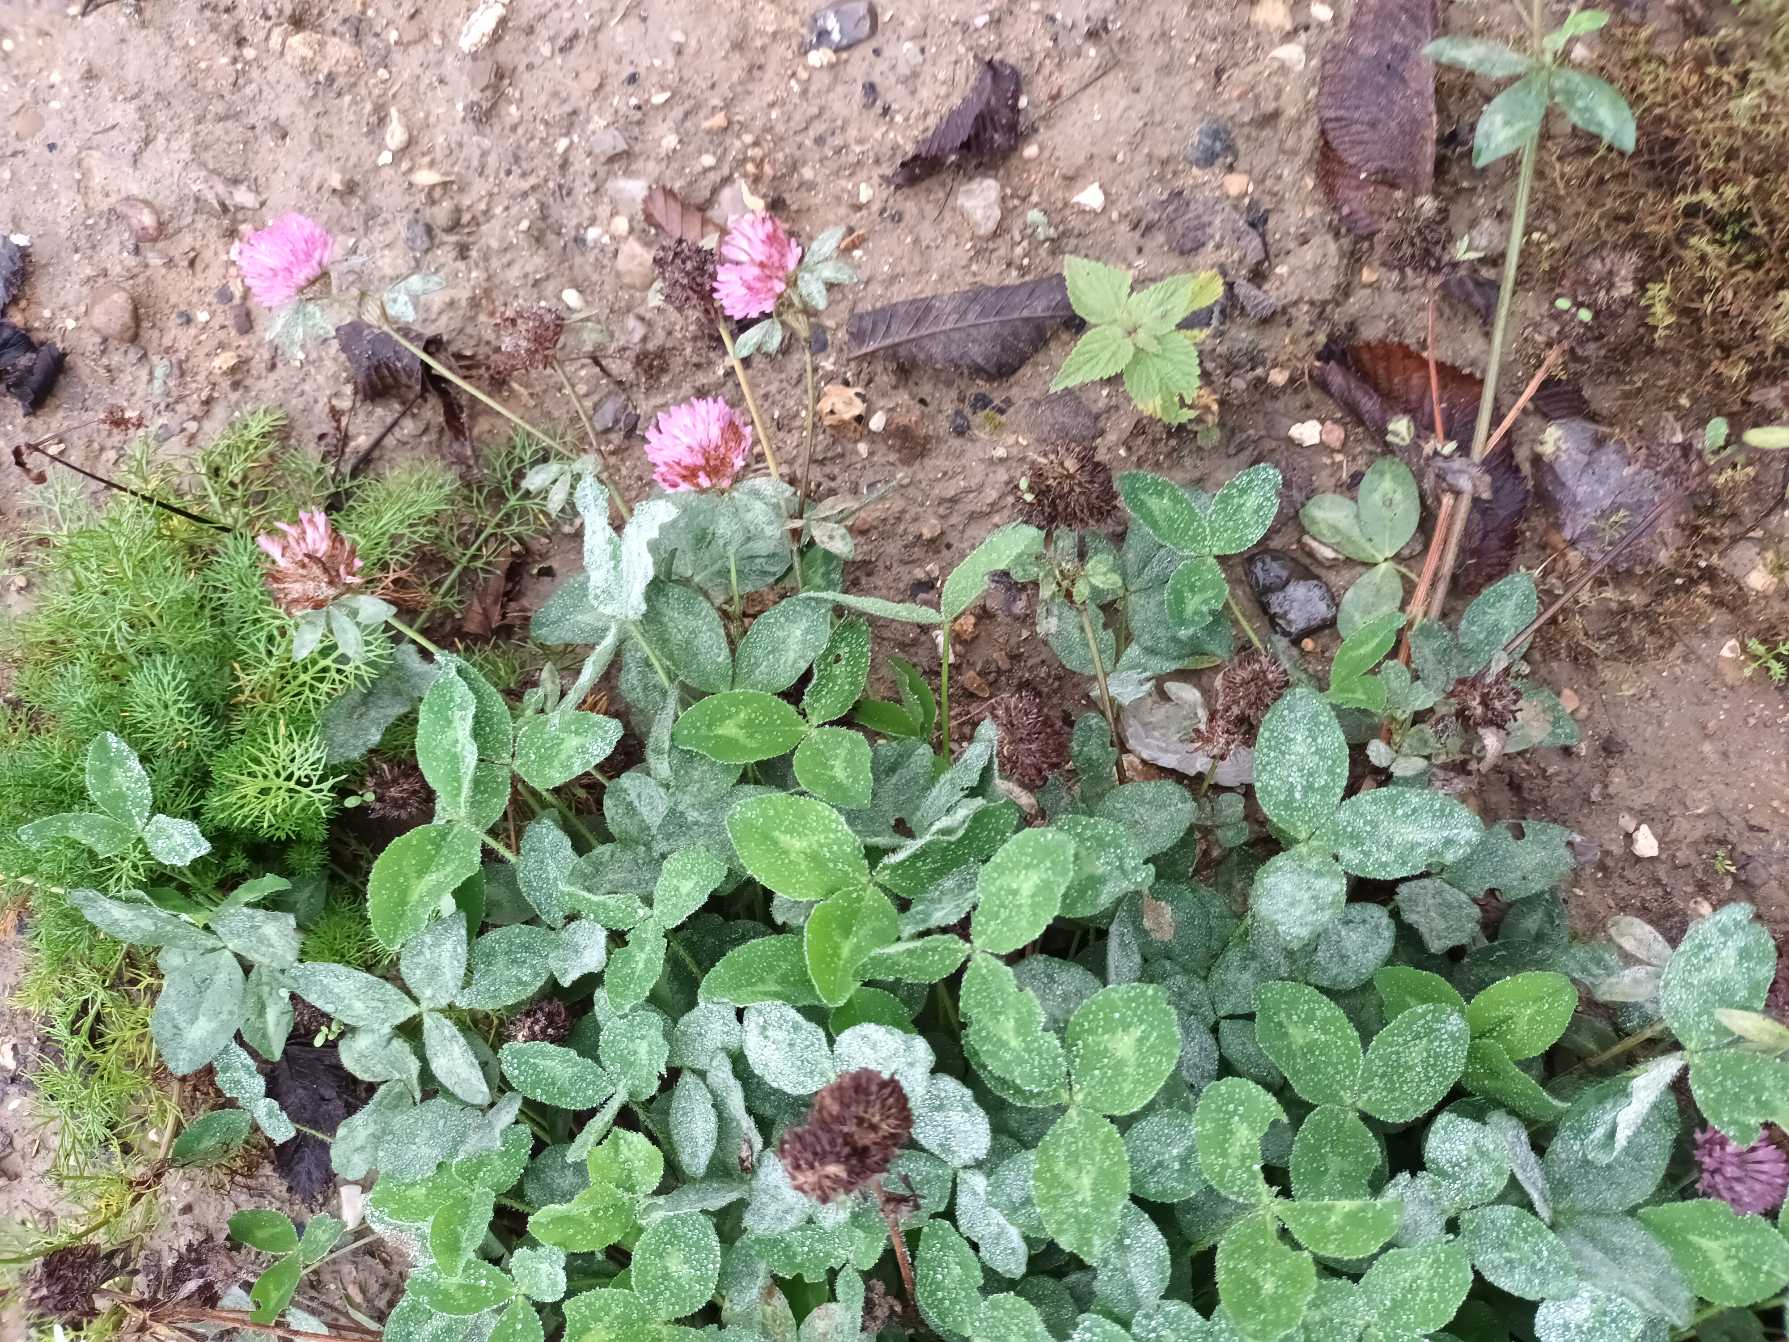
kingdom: Plantae
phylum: Tracheophyta
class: Magnoliopsida
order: Fabales
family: Fabaceae
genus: Trifolium
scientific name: Trifolium pratense
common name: Rød-kløver
